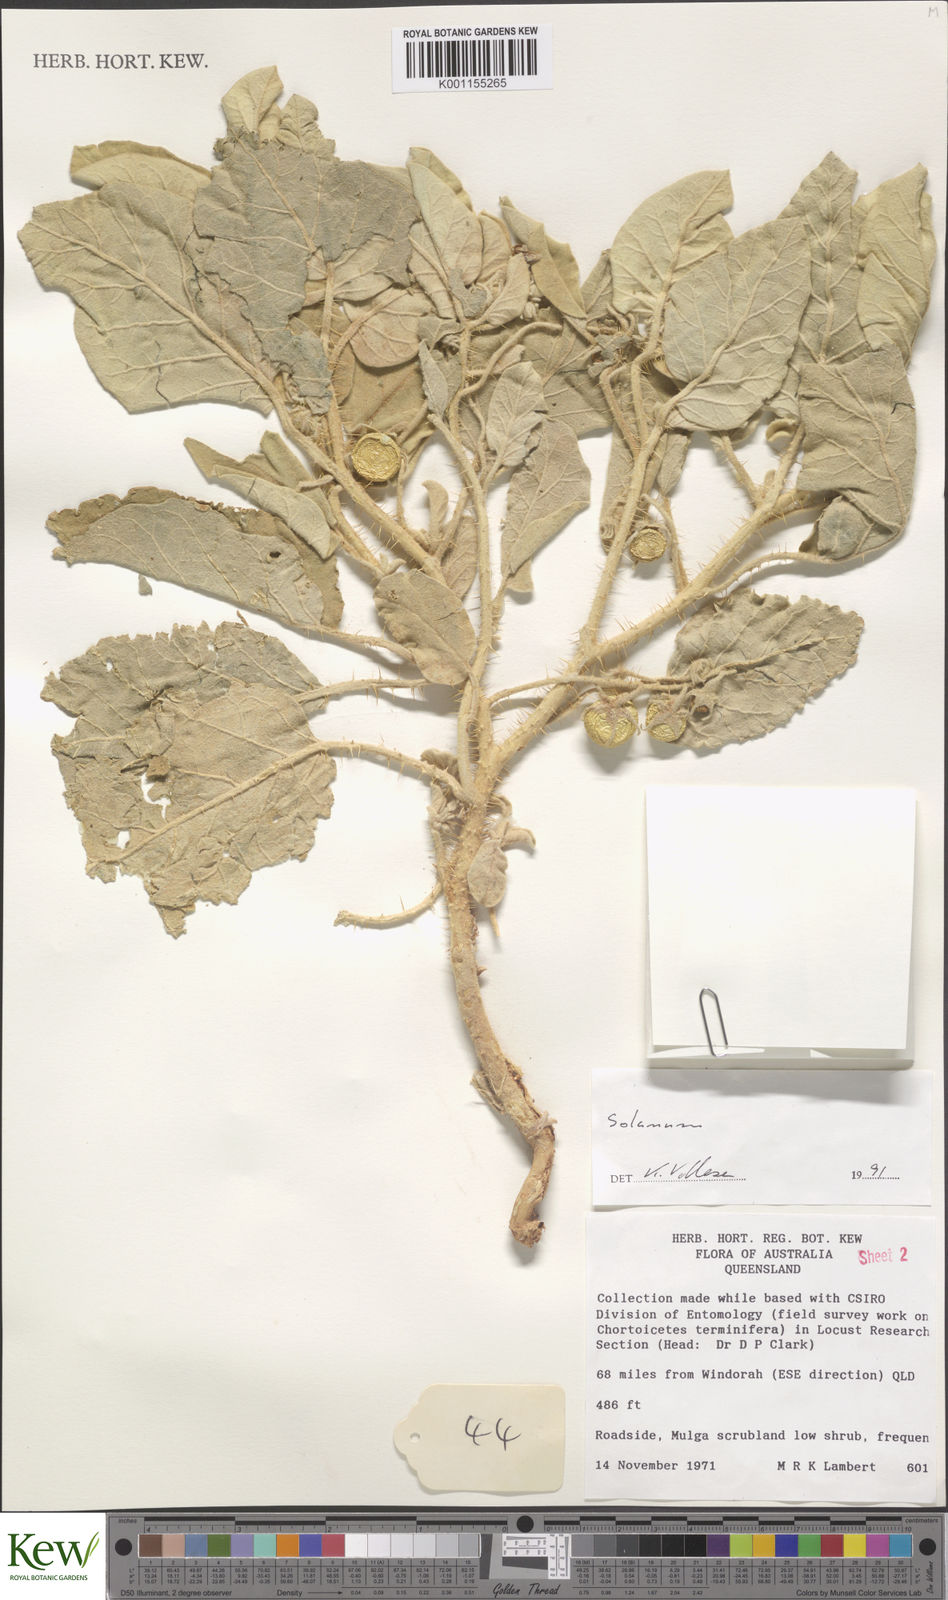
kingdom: Plantae
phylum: Tracheophyta
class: Magnoliopsida
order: Solanales
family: Solanaceae
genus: Solanum
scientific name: Solanum
